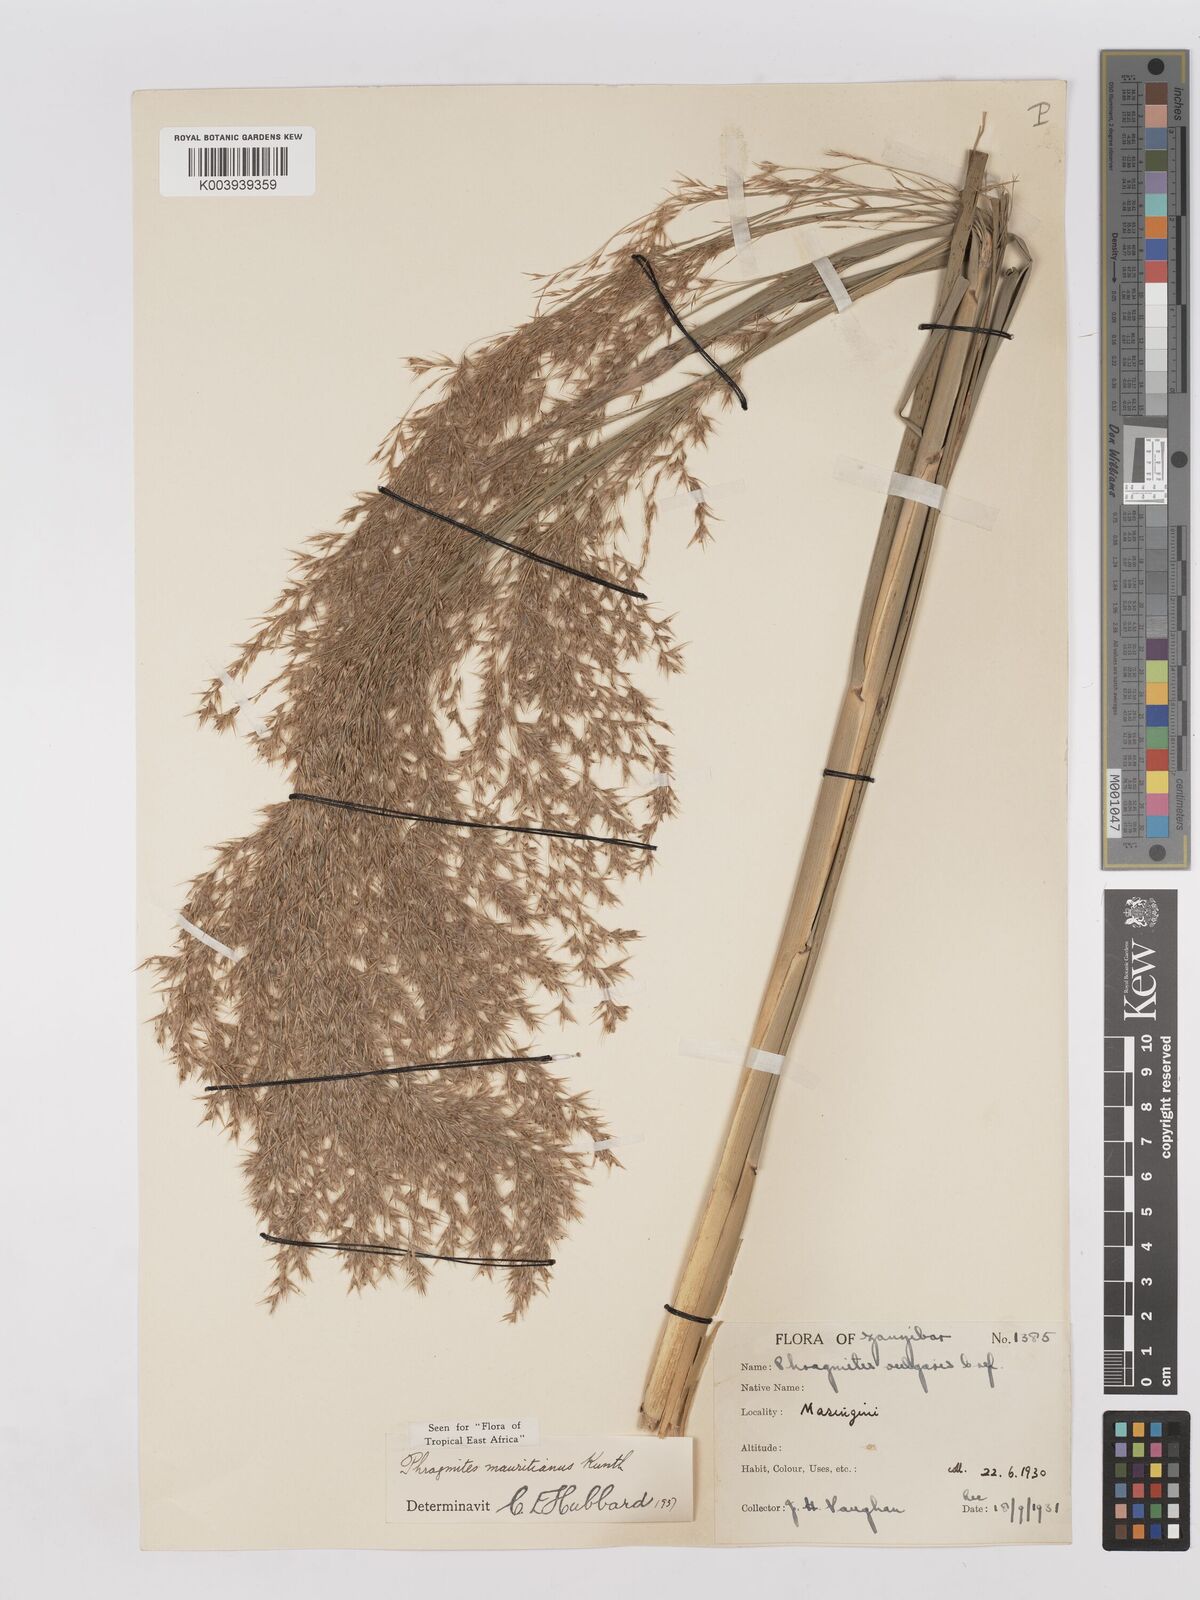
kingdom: Plantae
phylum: Tracheophyta
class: Liliopsida
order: Poales
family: Poaceae
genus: Phragmites
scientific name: Phragmites mauritianus
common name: Reed grass
